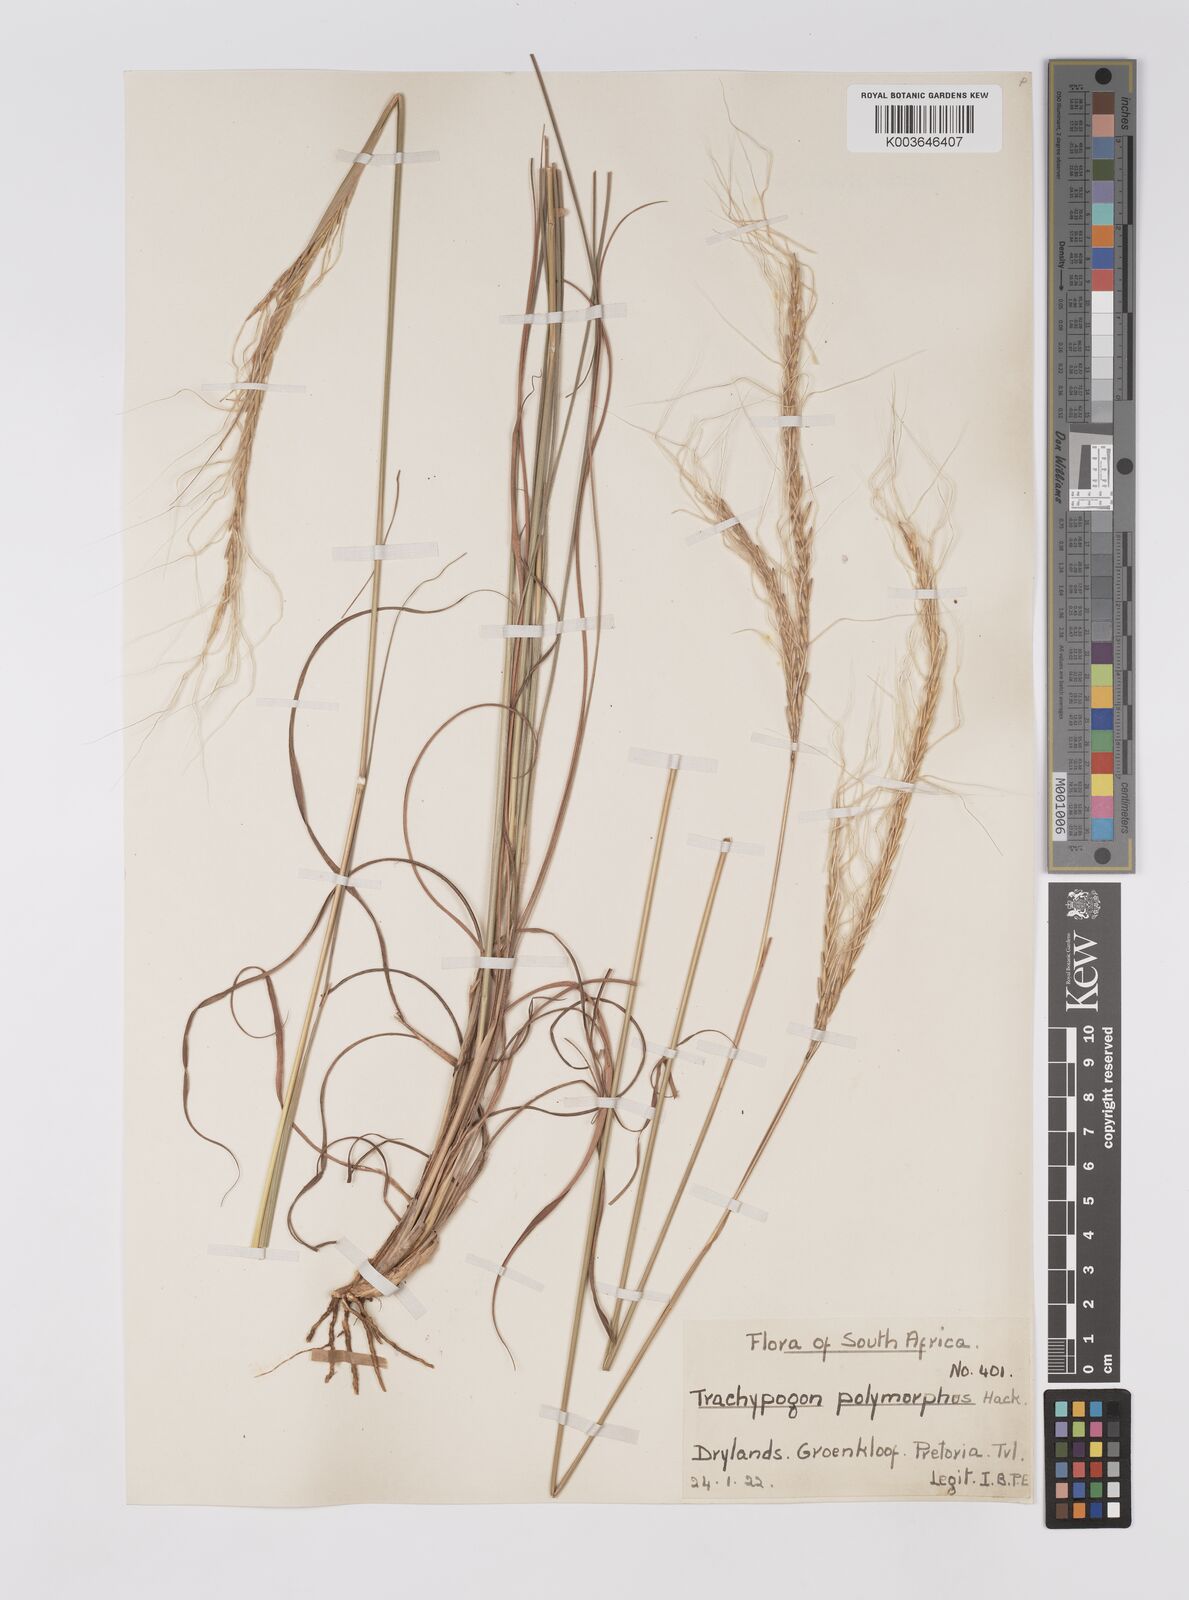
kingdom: Plantae
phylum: Tracheophyta
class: Liliopsida
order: Poales
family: Poaceae
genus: Trachypogon
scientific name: Trachypogon spicatus
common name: Crinkle-awn
